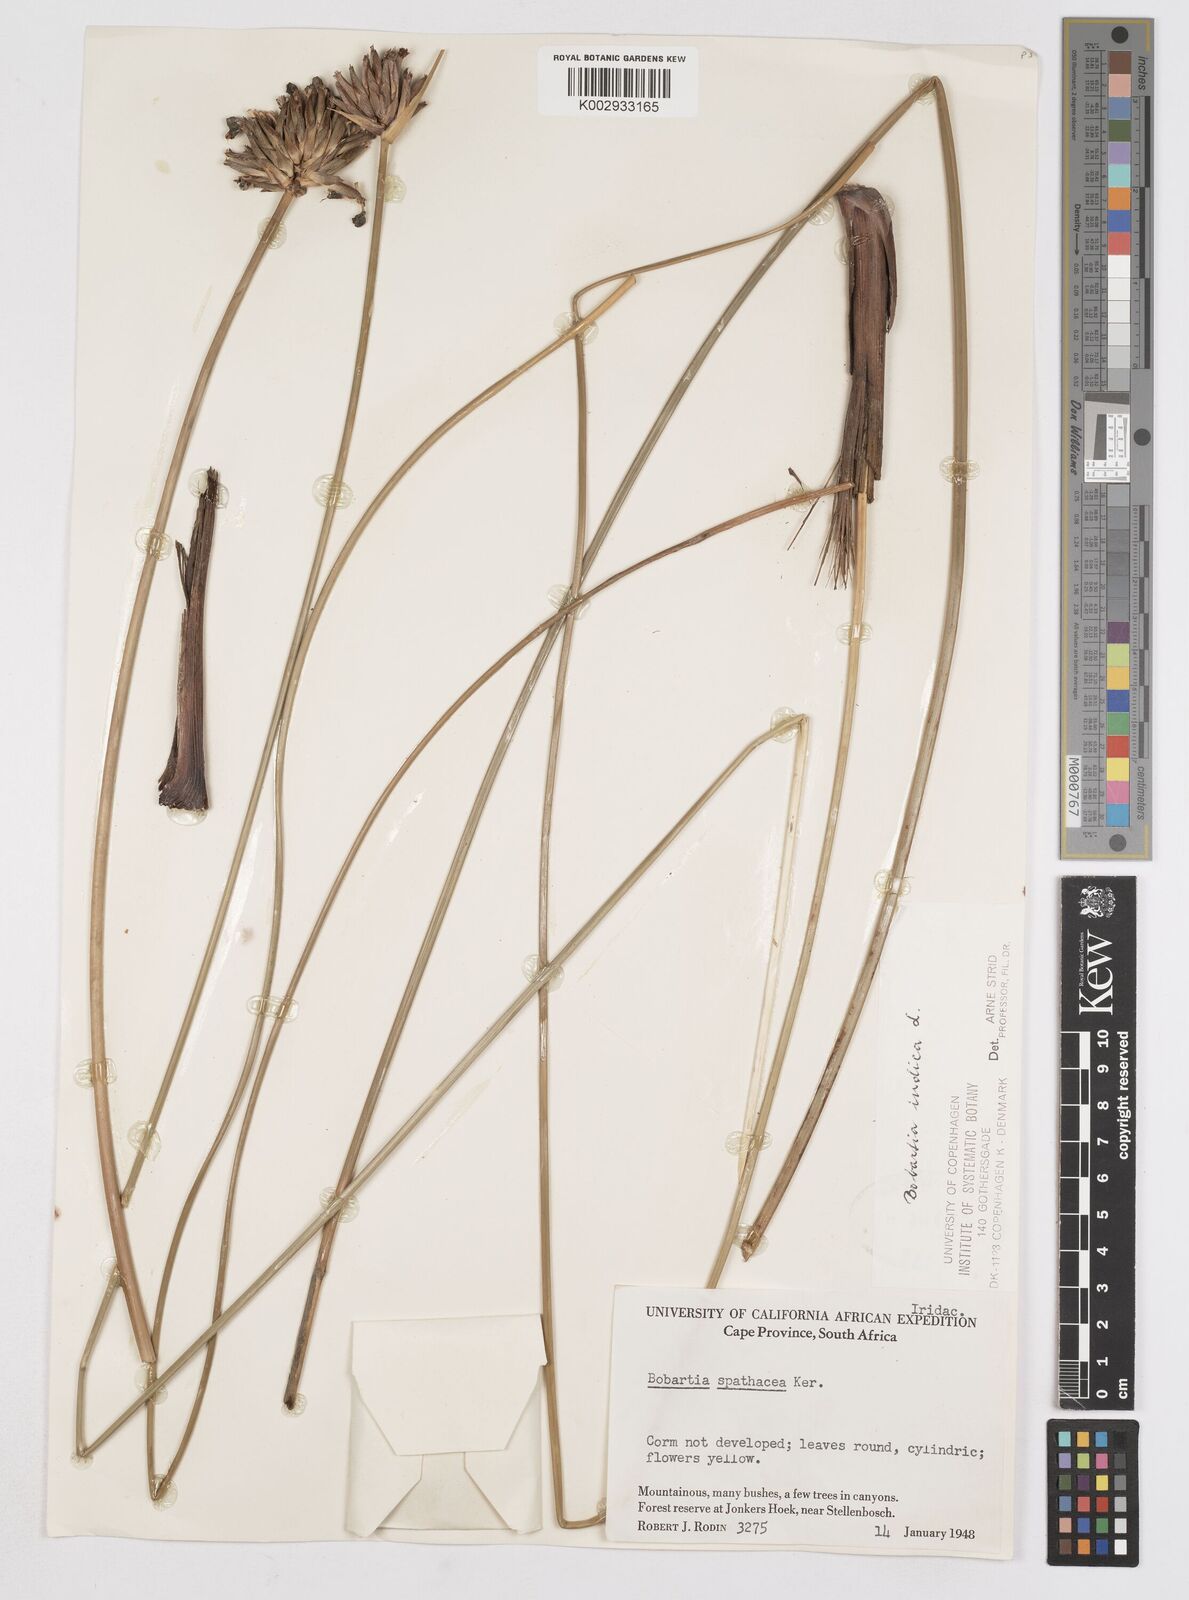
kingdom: Plantae
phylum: Tracheophyta
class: Liliopsida
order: Asparagales
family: Iridaceae
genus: Bobartia
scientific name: Bobartia indica
